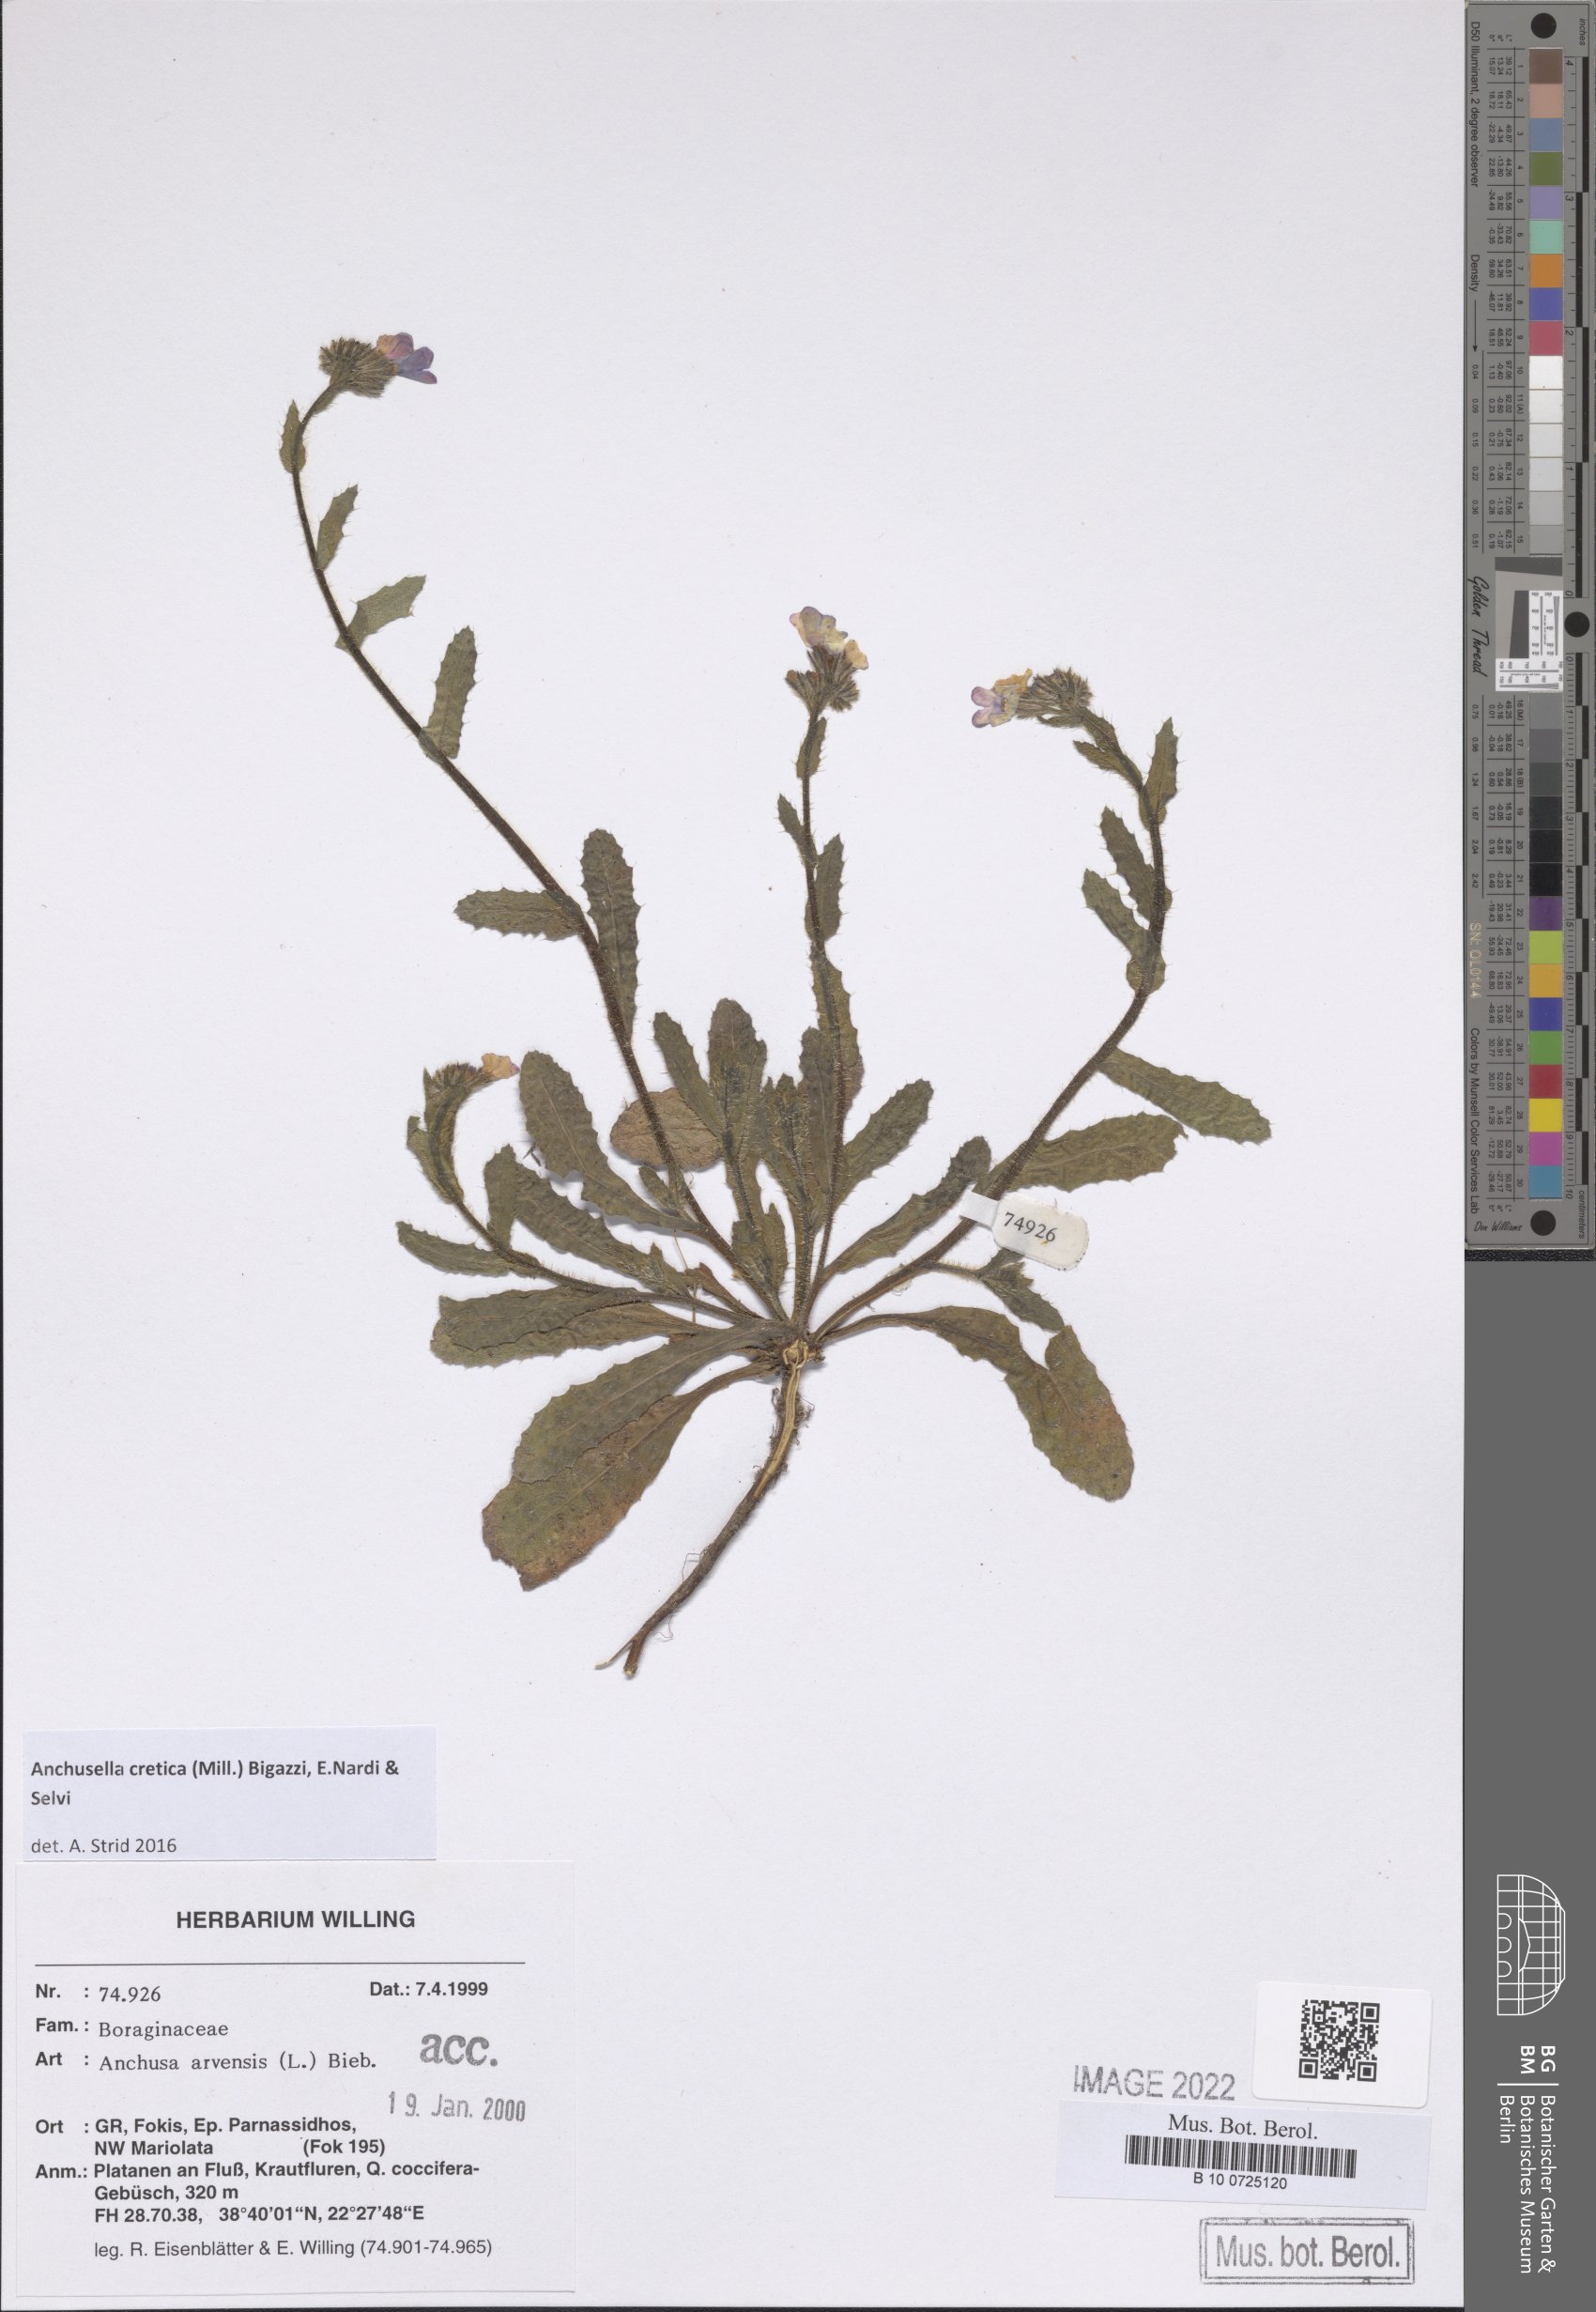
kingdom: Plantae
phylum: Tracheophyta
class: Magnoliopsida
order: Boraginales
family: Boraginaceae
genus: Anchusella
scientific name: Anchusella cretica
